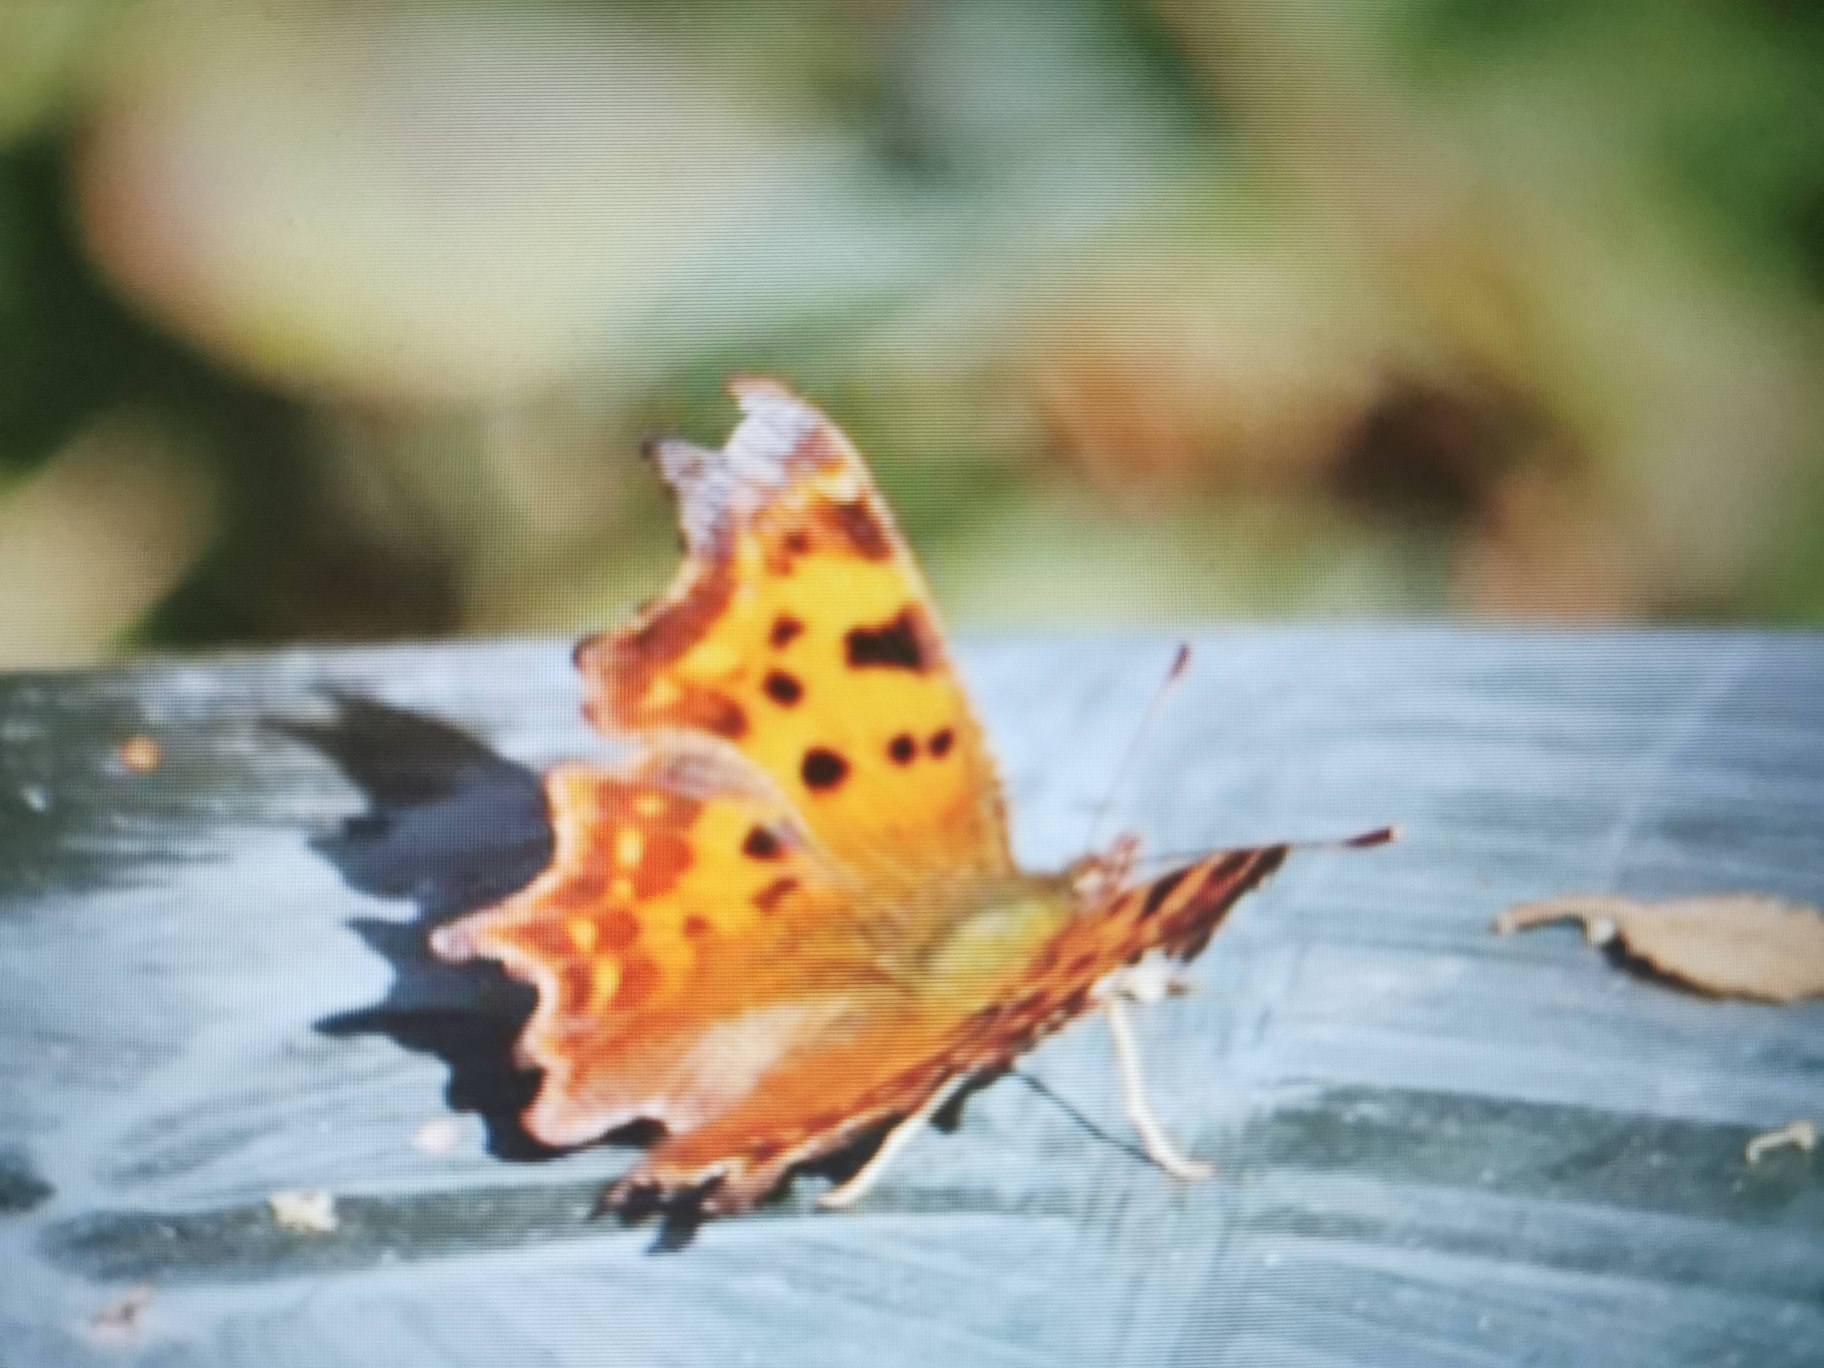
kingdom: Animalia
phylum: Arthropoda
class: Insecta
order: Lepidoptera
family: Nymphalidae
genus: Polygonia
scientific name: Polygonia c-album
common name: Det hvide C
